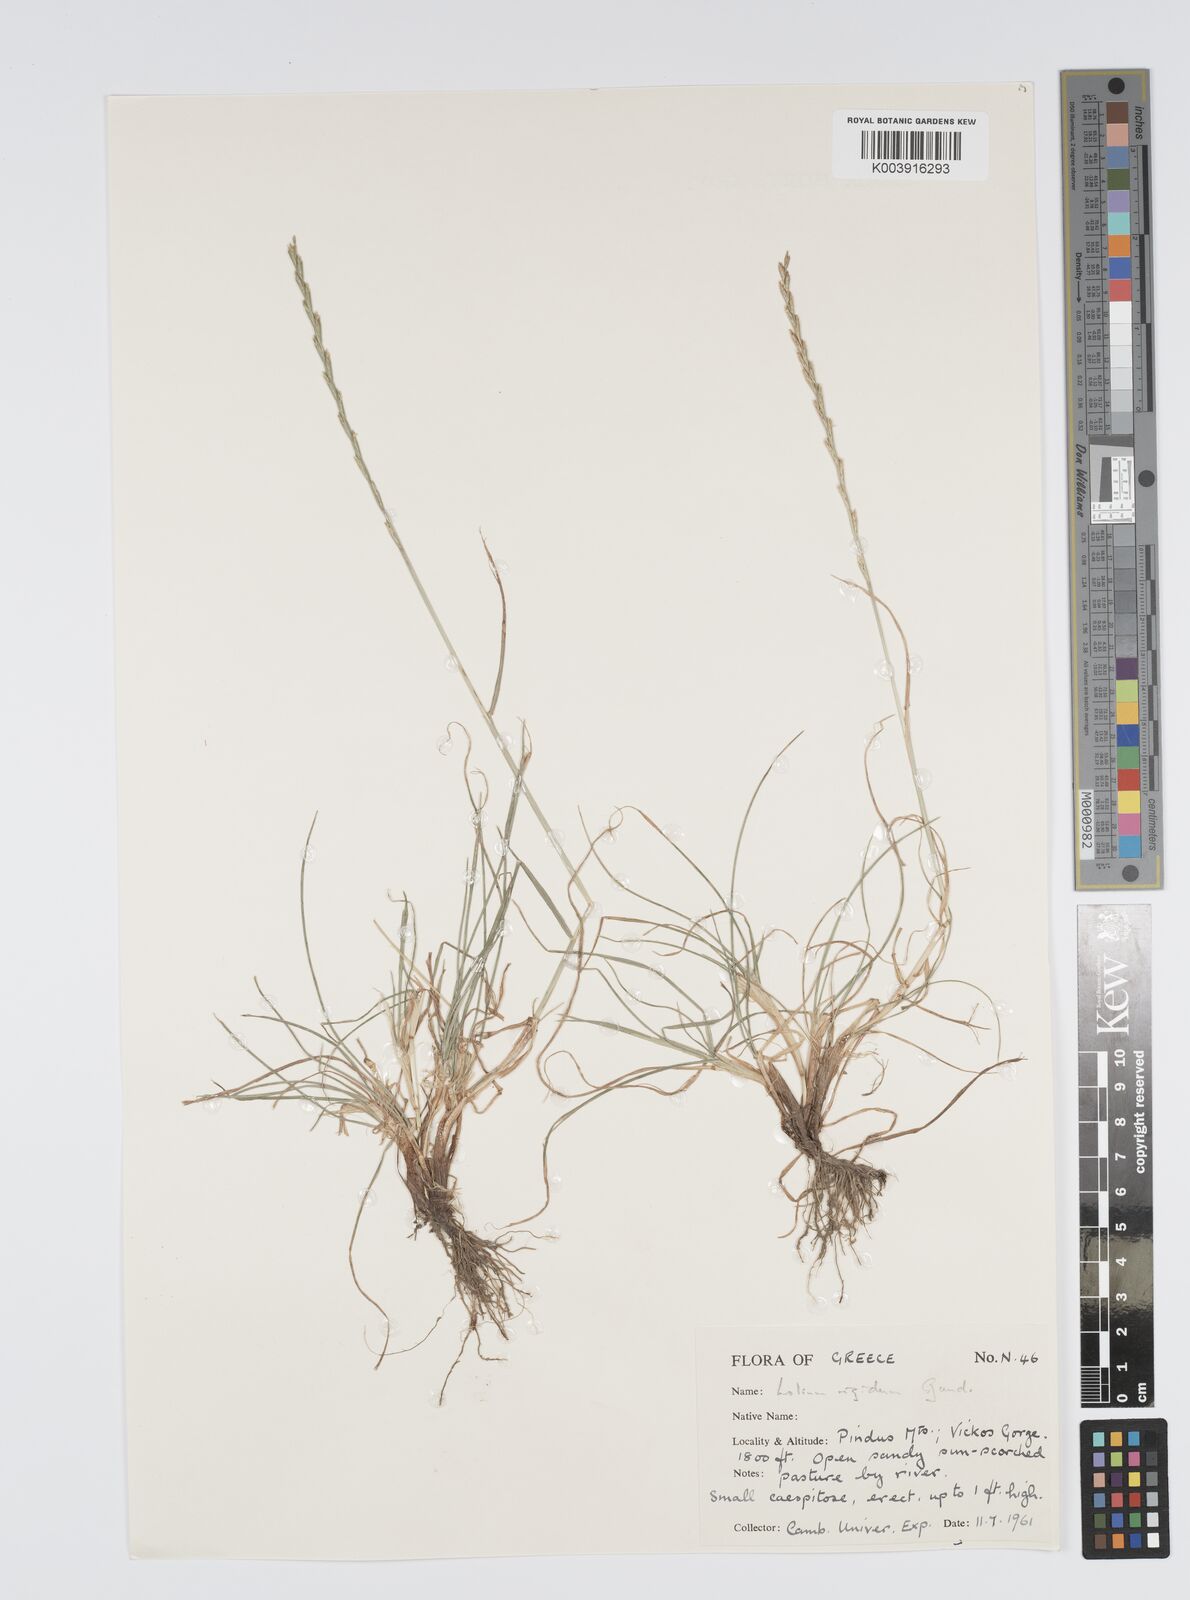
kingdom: Plantae
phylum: Tracheophyta
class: Liliopsida
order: Poales
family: Poaceae
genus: Lolium
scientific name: Lolium rigidum
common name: Wimmera ryegrass
